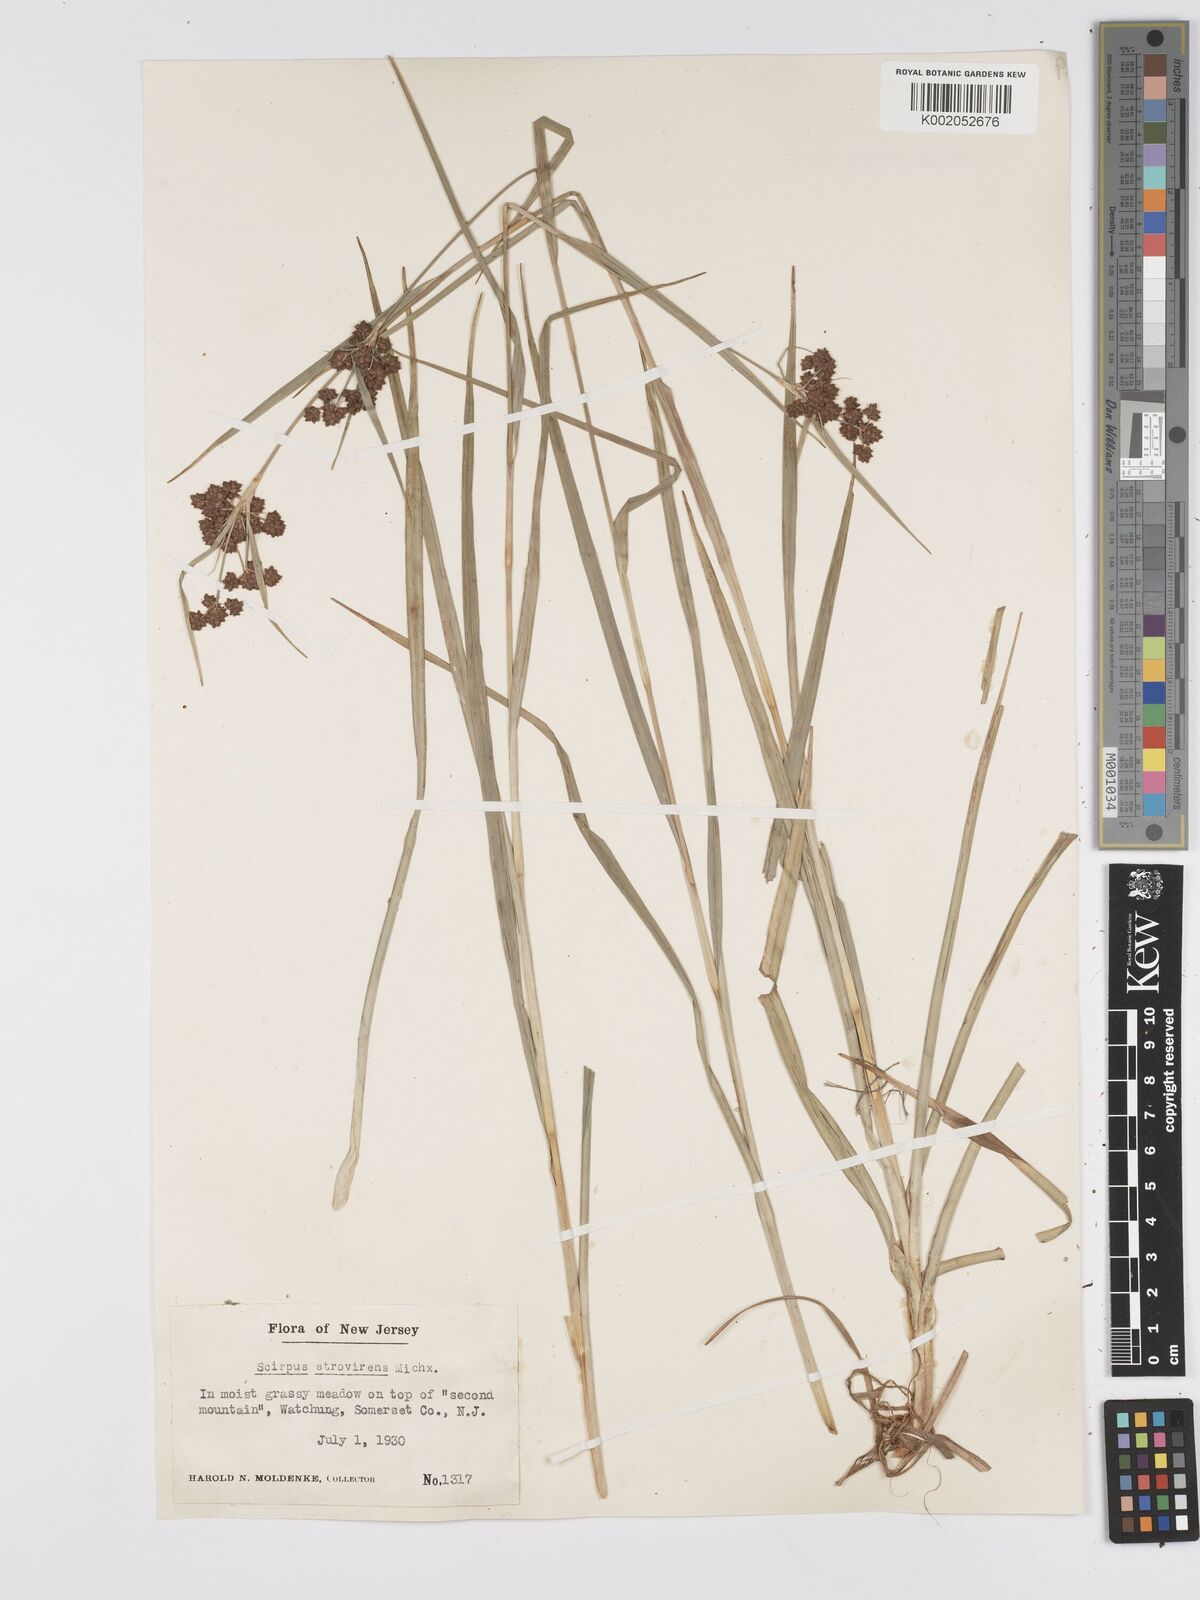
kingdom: Plantae
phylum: Tracheophyta
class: Liliopsida
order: Poales
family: Cyperaceae
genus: Scirpus
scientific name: Scirpus atrovirens
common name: Black bulrush
